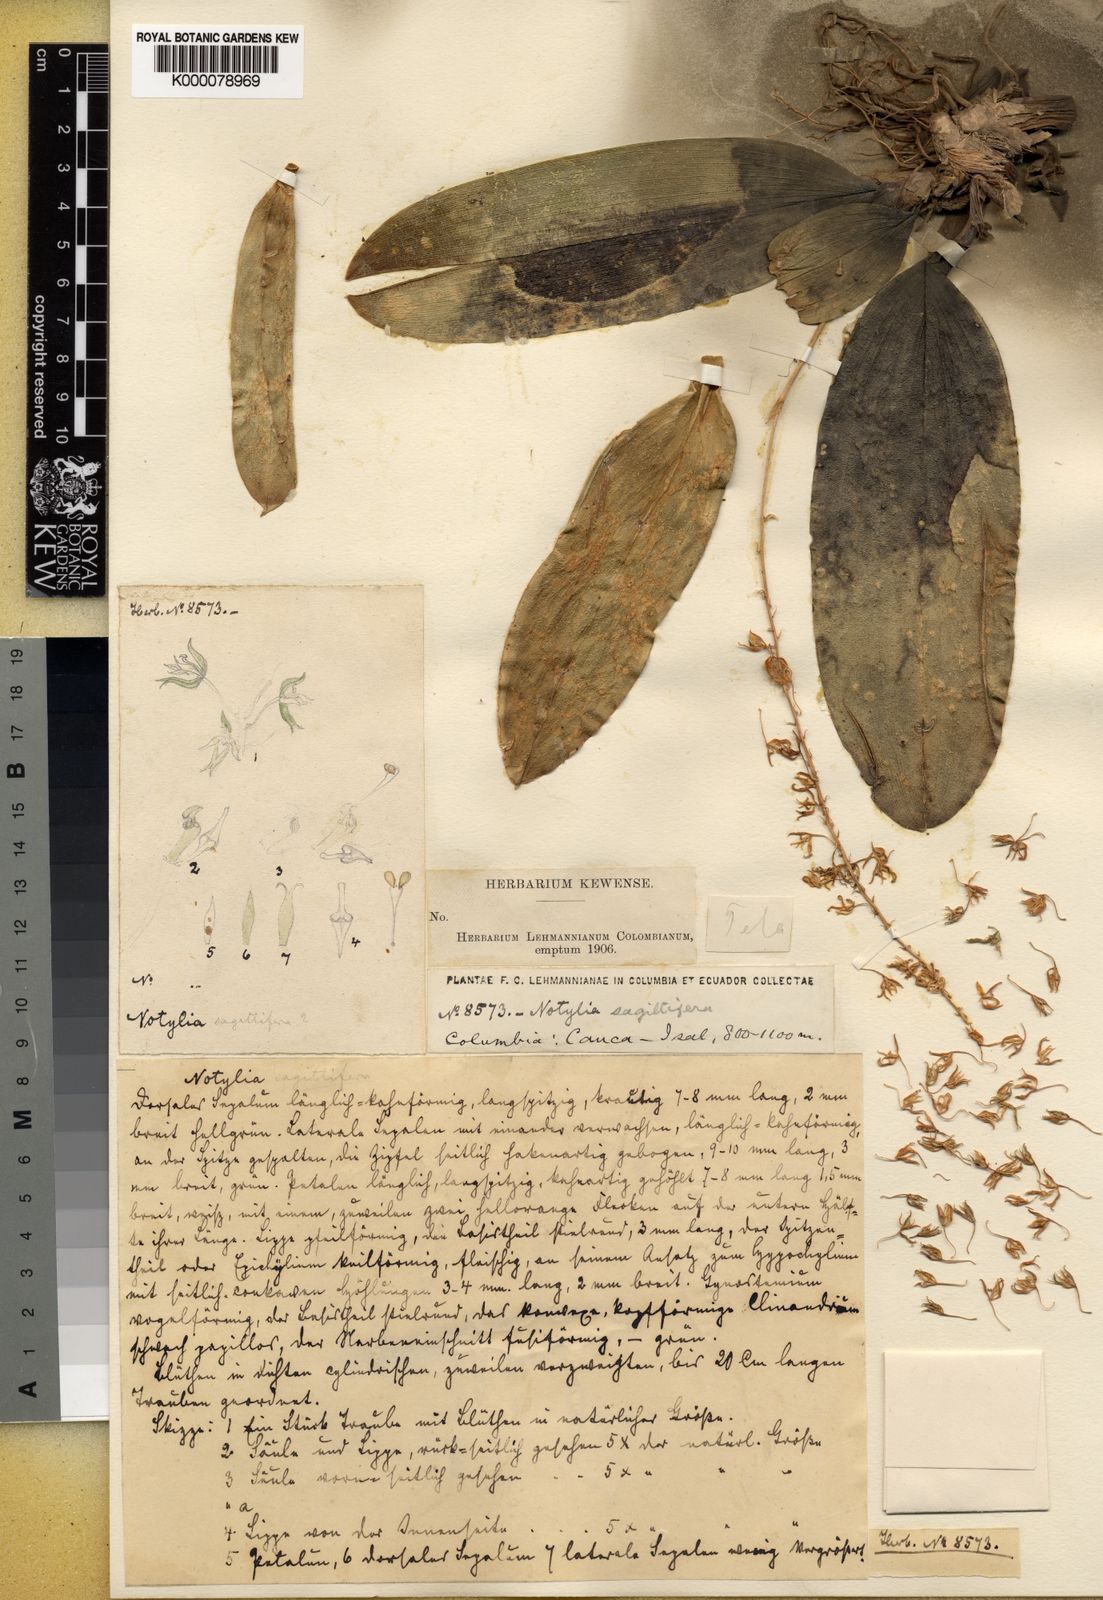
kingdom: Plantae
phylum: Tracheophyta
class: Liliopsida
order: Asparagales
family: Orchidaceae
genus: Notylia
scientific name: Notylia sagittifera
